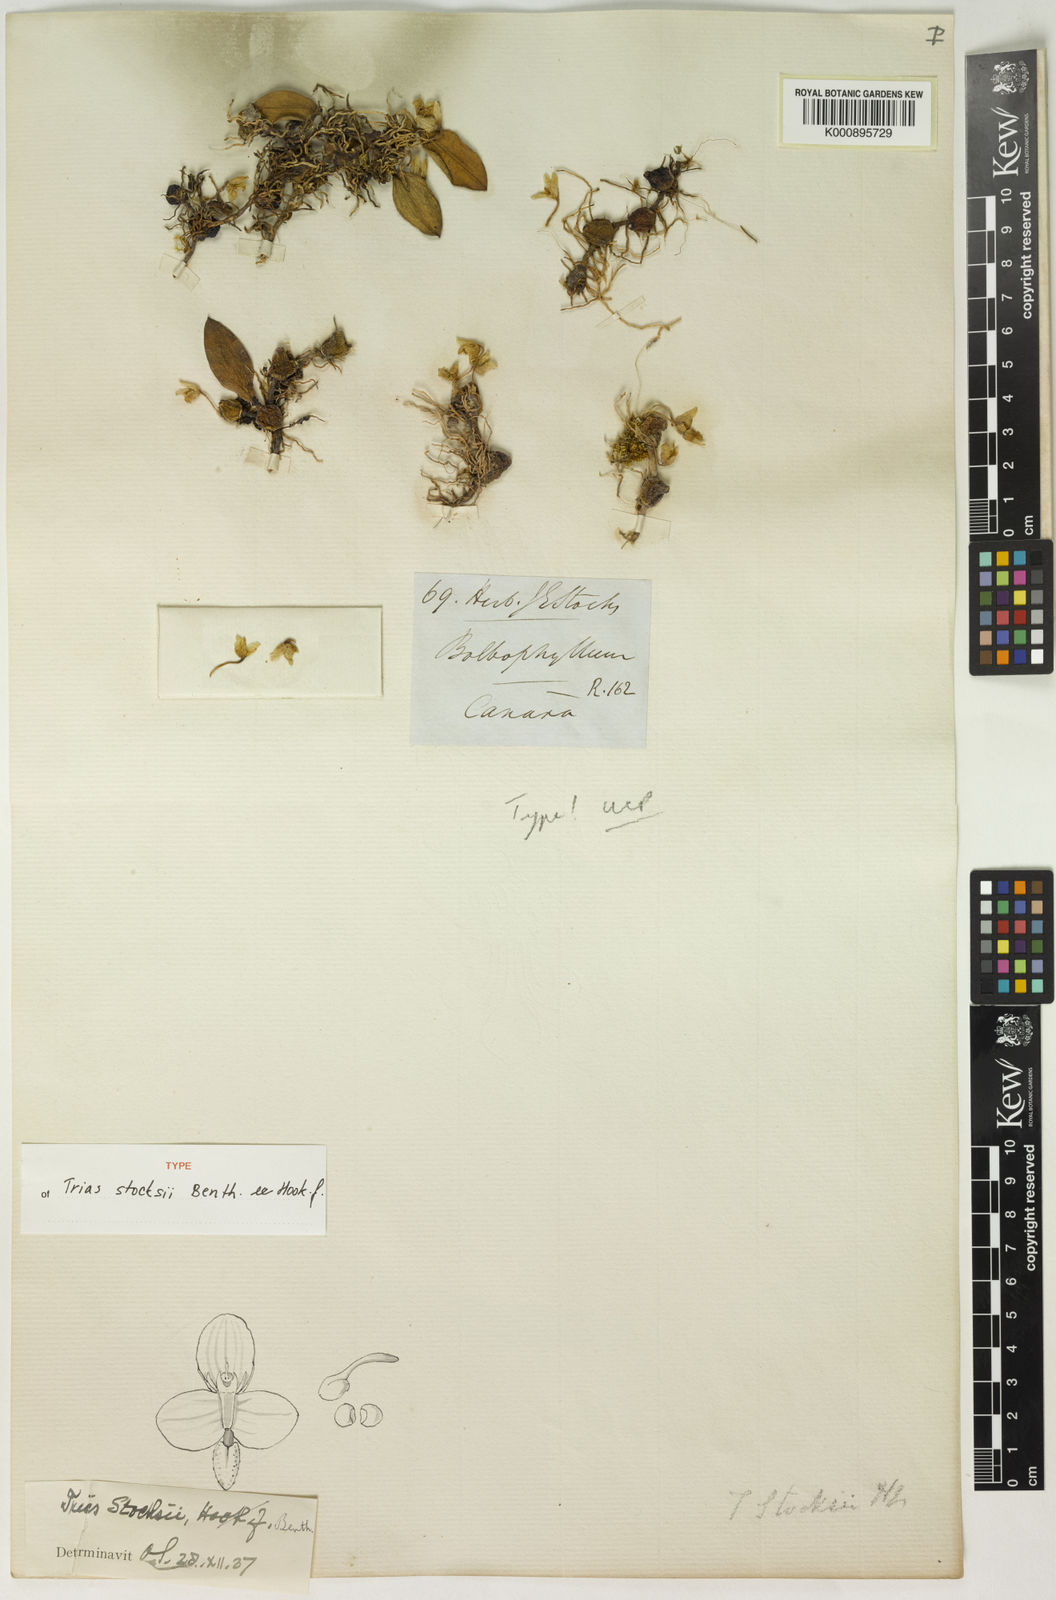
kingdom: Plantae
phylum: Tracheophyta
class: Liliopsida
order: Asparagales
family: Orchidaceae
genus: Bulbophyllum
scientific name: Bulbophyllum stocksii
